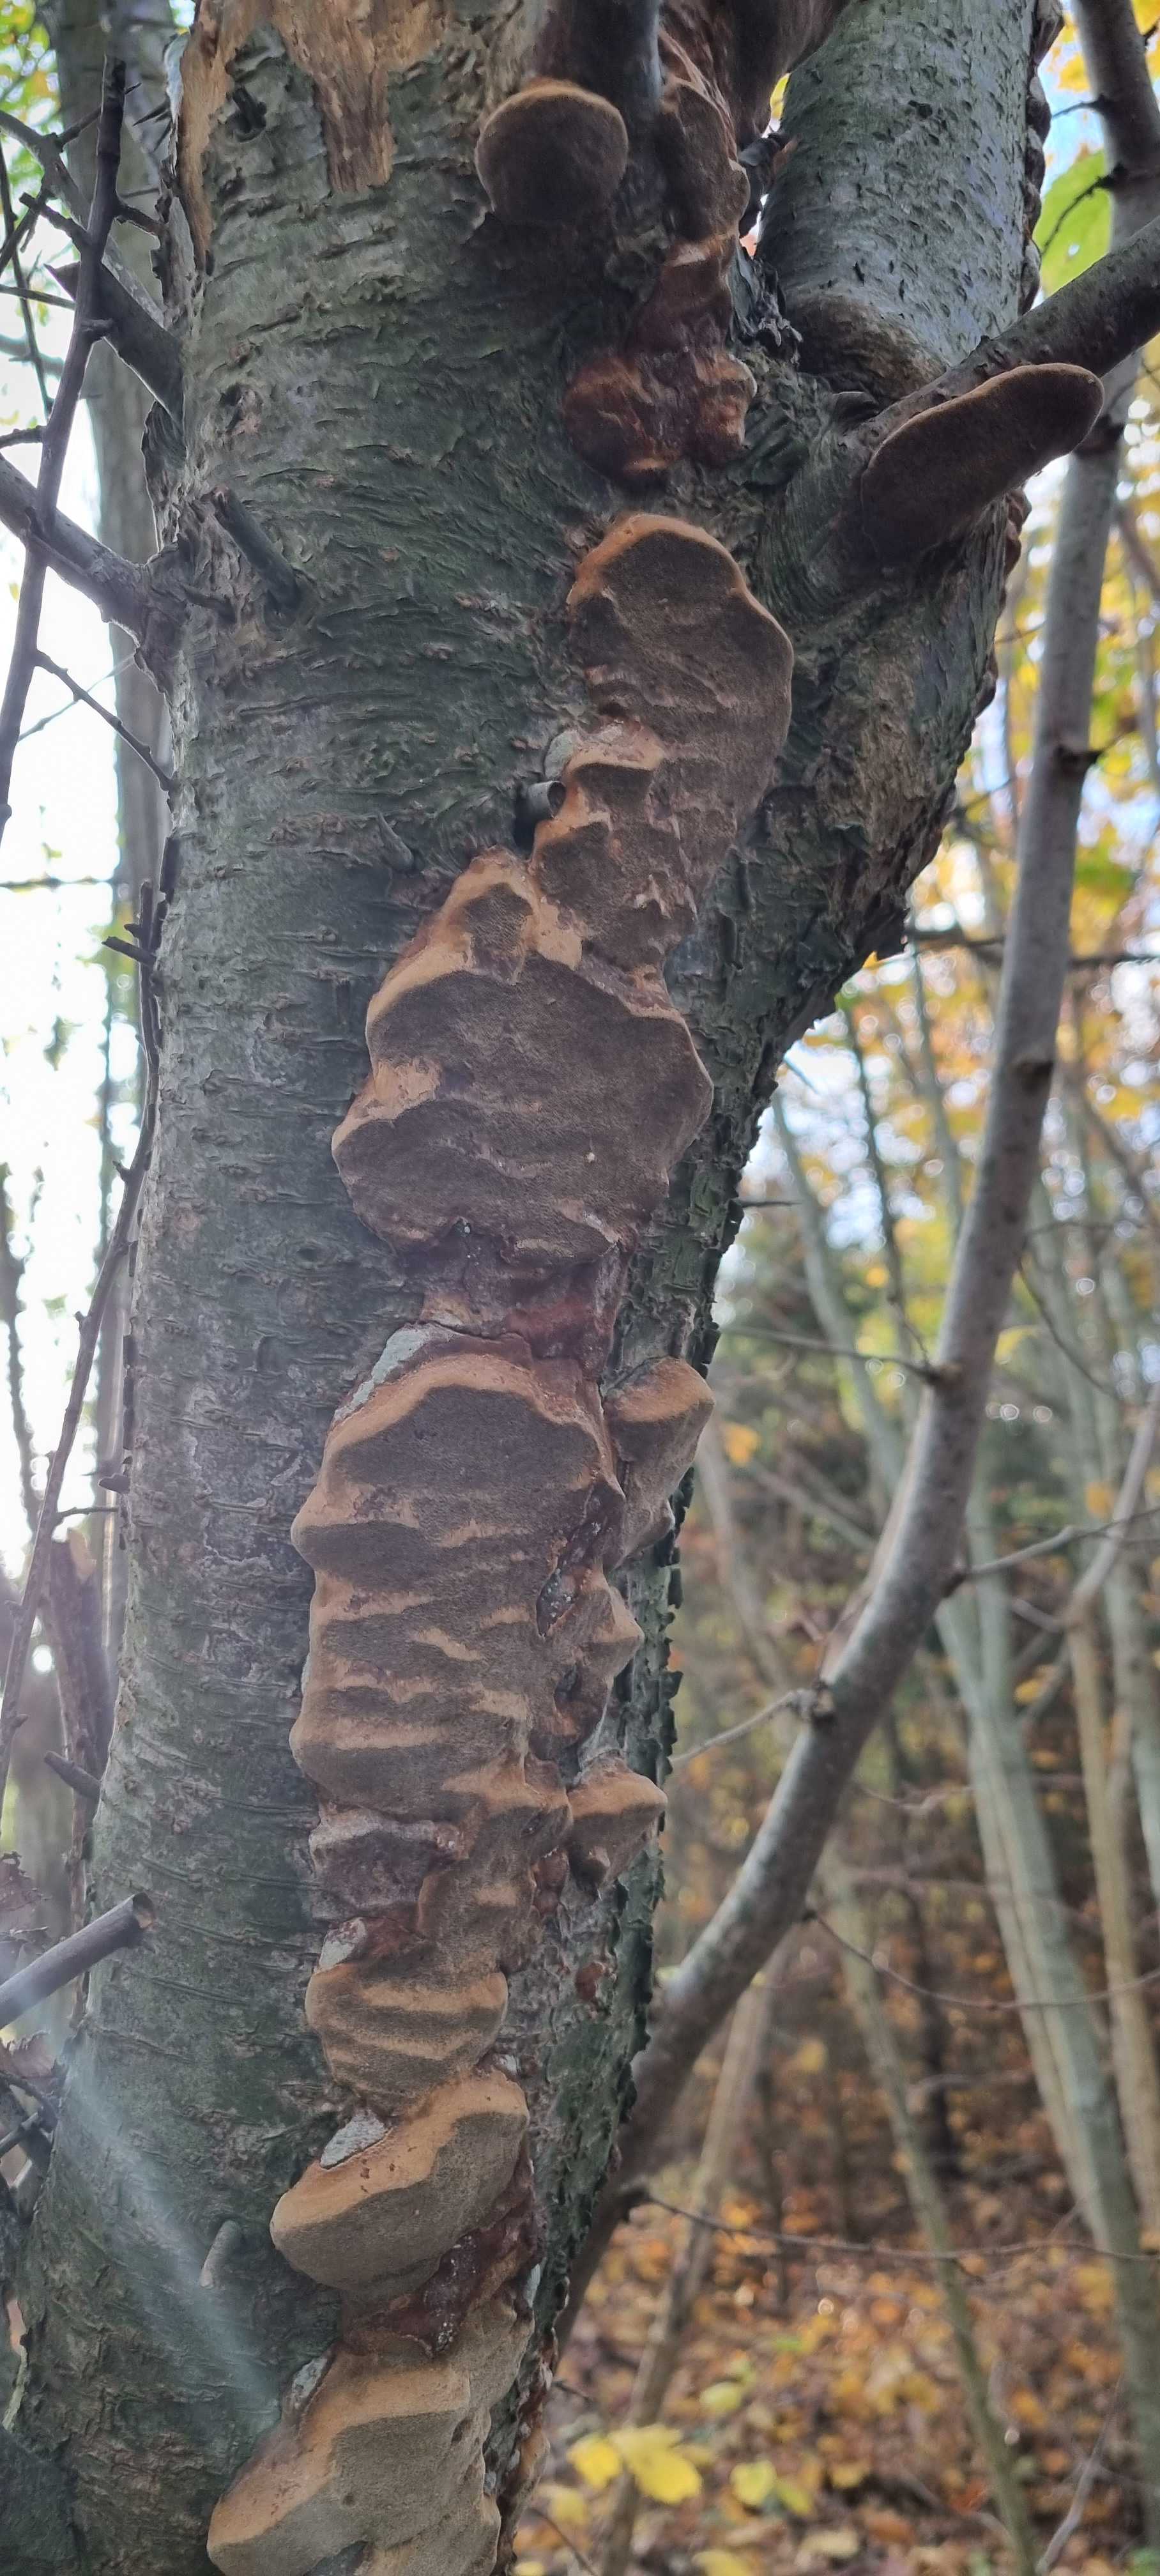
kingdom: Fungi
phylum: Basidiomycota
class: Agaricomycetes
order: Hymenochaetales
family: Hymenochaetaceae
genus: Phellinus
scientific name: Phellinus pomaceus
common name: blomme-ildporesvamp
